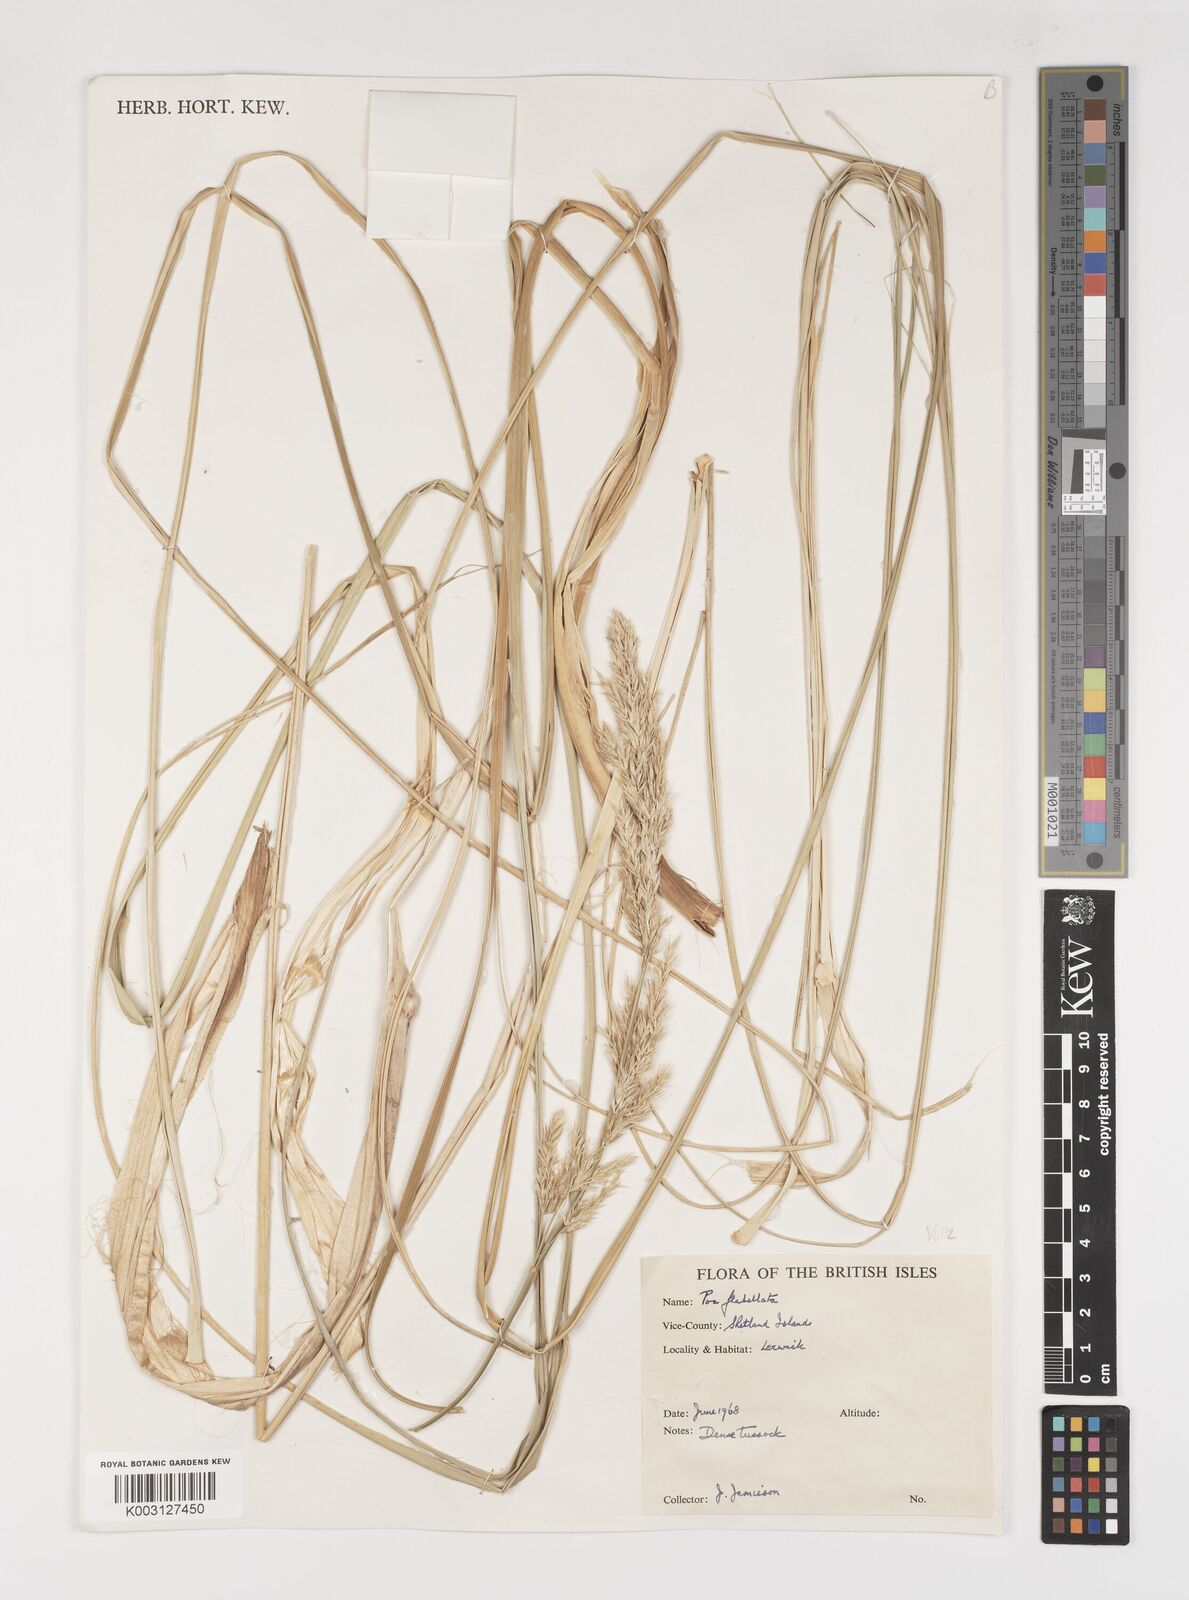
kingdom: Plantae
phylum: Tracheophyta
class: Liliopsida
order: Poales
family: Poaceae
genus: Poa
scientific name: Poa flabellata
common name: Tussac-grass
